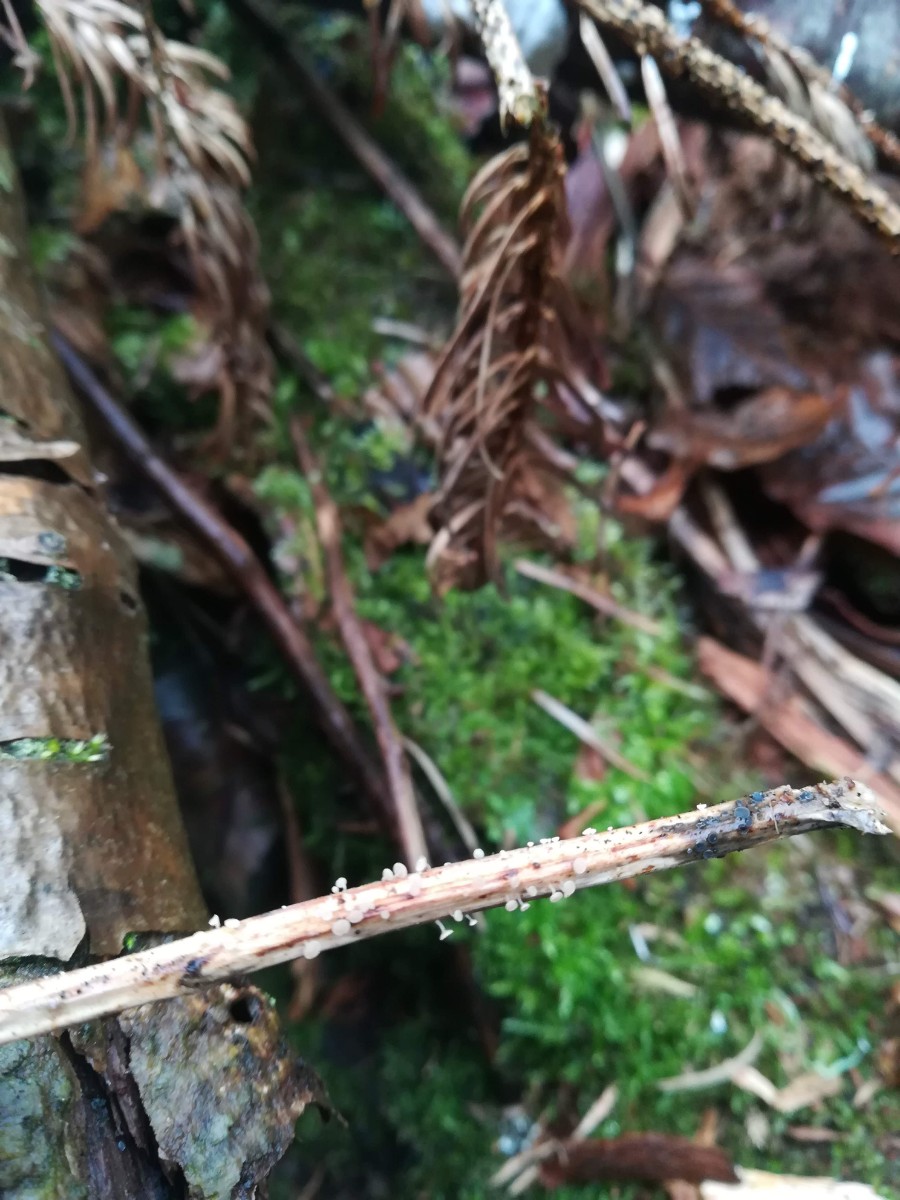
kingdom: Fungi
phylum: Ascomycota
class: Leotiomycetes
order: Helotiales
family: Helotiaceae
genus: Cyathicula
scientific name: Cyathicula cyathoidea
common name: pokal-stilkskive
